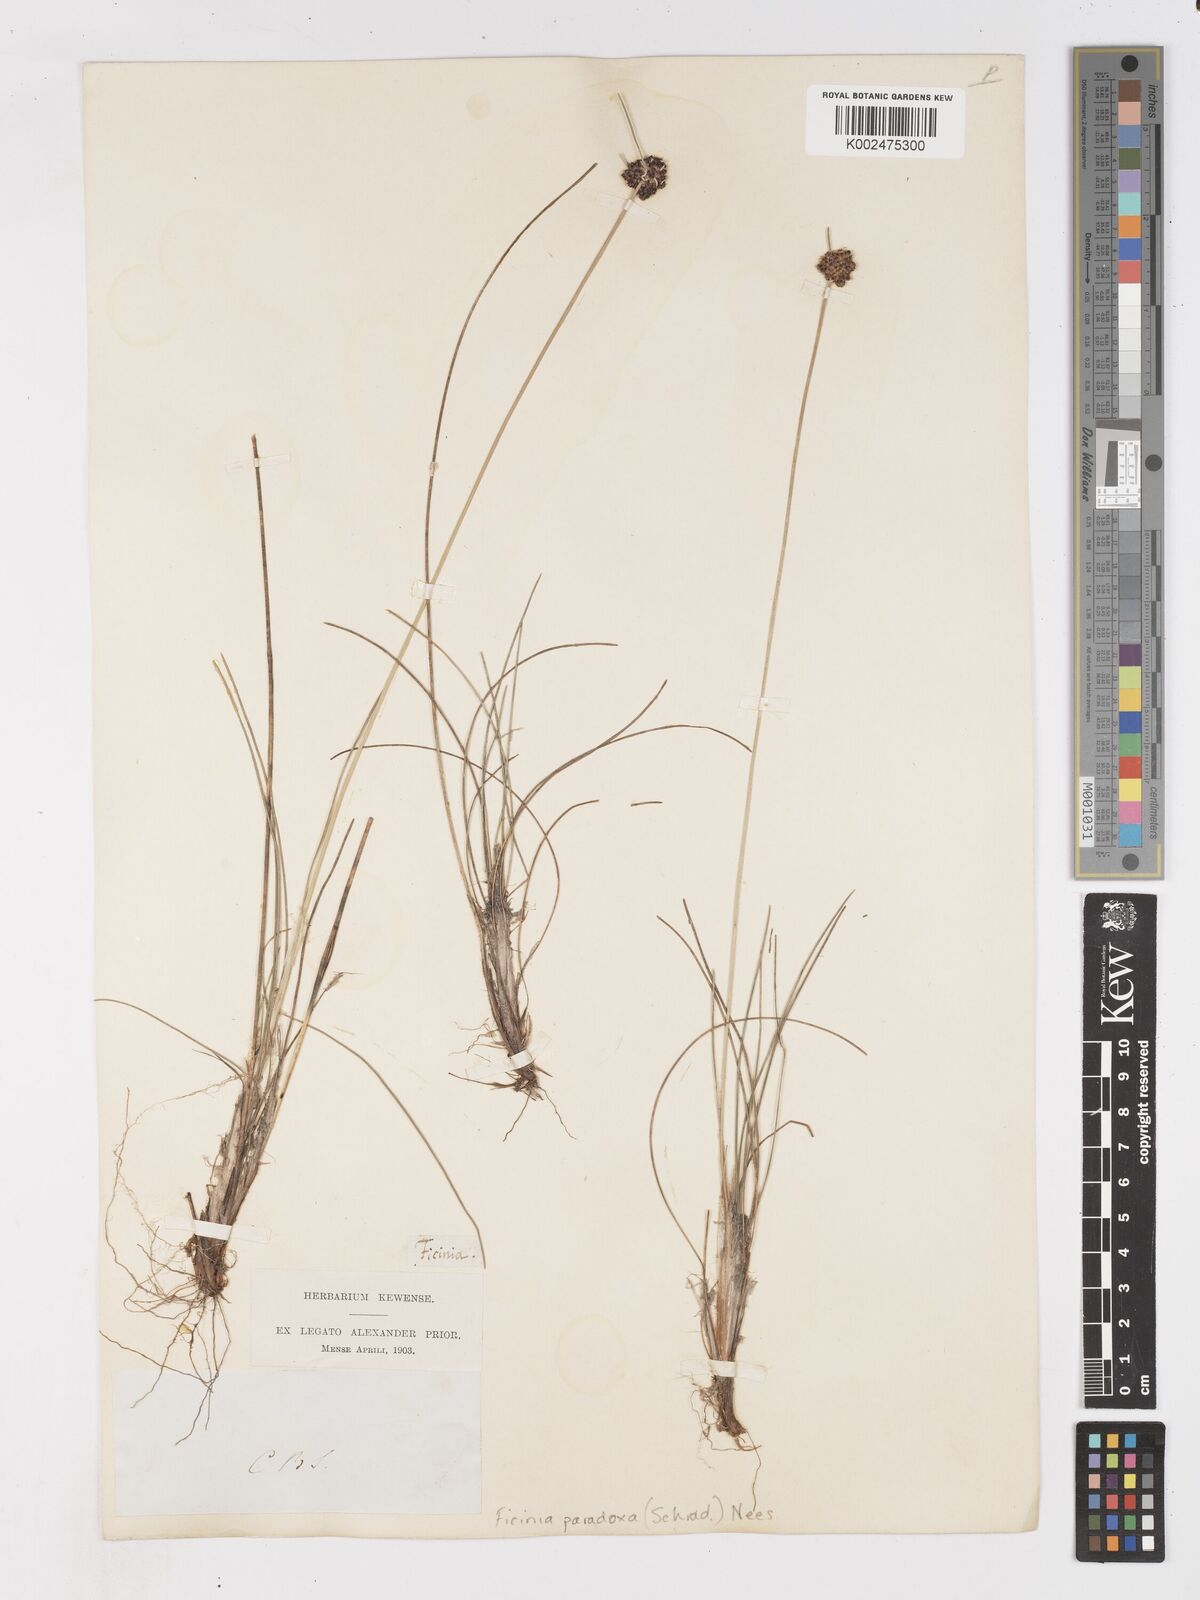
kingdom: Plantae
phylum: Tracheophyta
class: Liliopsida
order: Poales
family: Cyperaceae
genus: Ficinia
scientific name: Ficinia paradoxa
